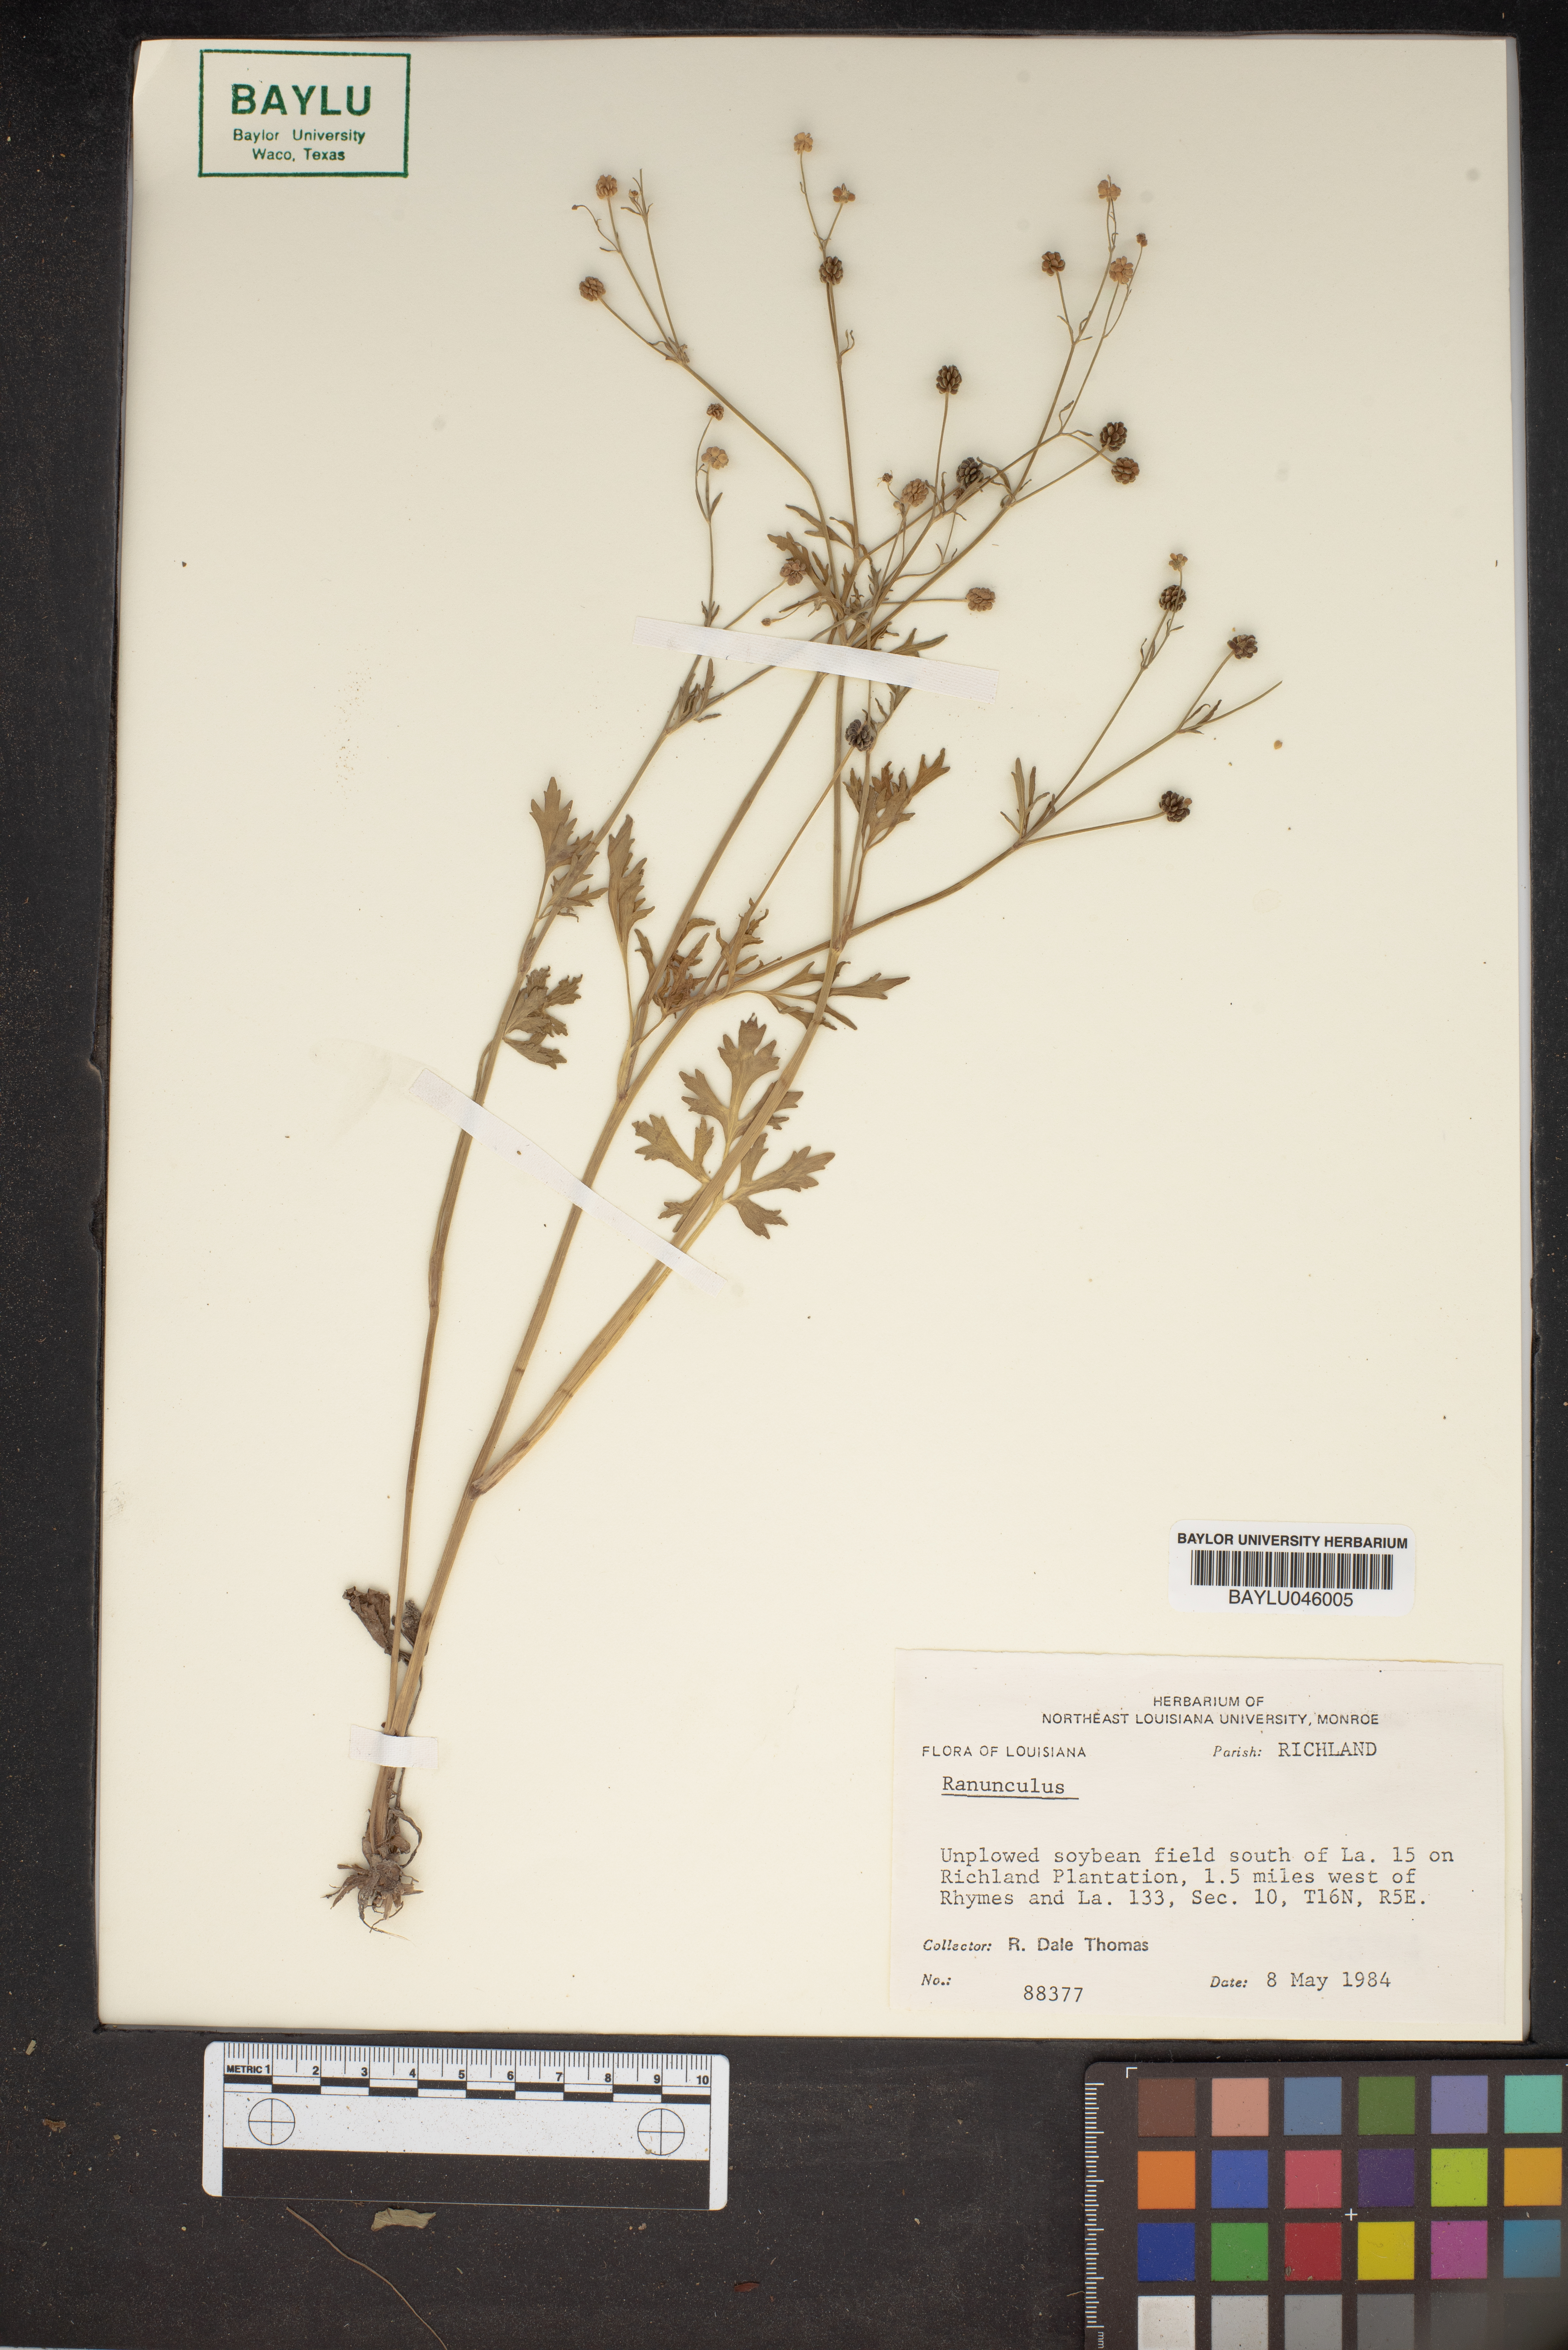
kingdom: Plantae
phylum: Tracheophyta
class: Magnoliopsida
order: Ranunculales
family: Ranunculaceae
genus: Ranunculus
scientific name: Ranunculus
